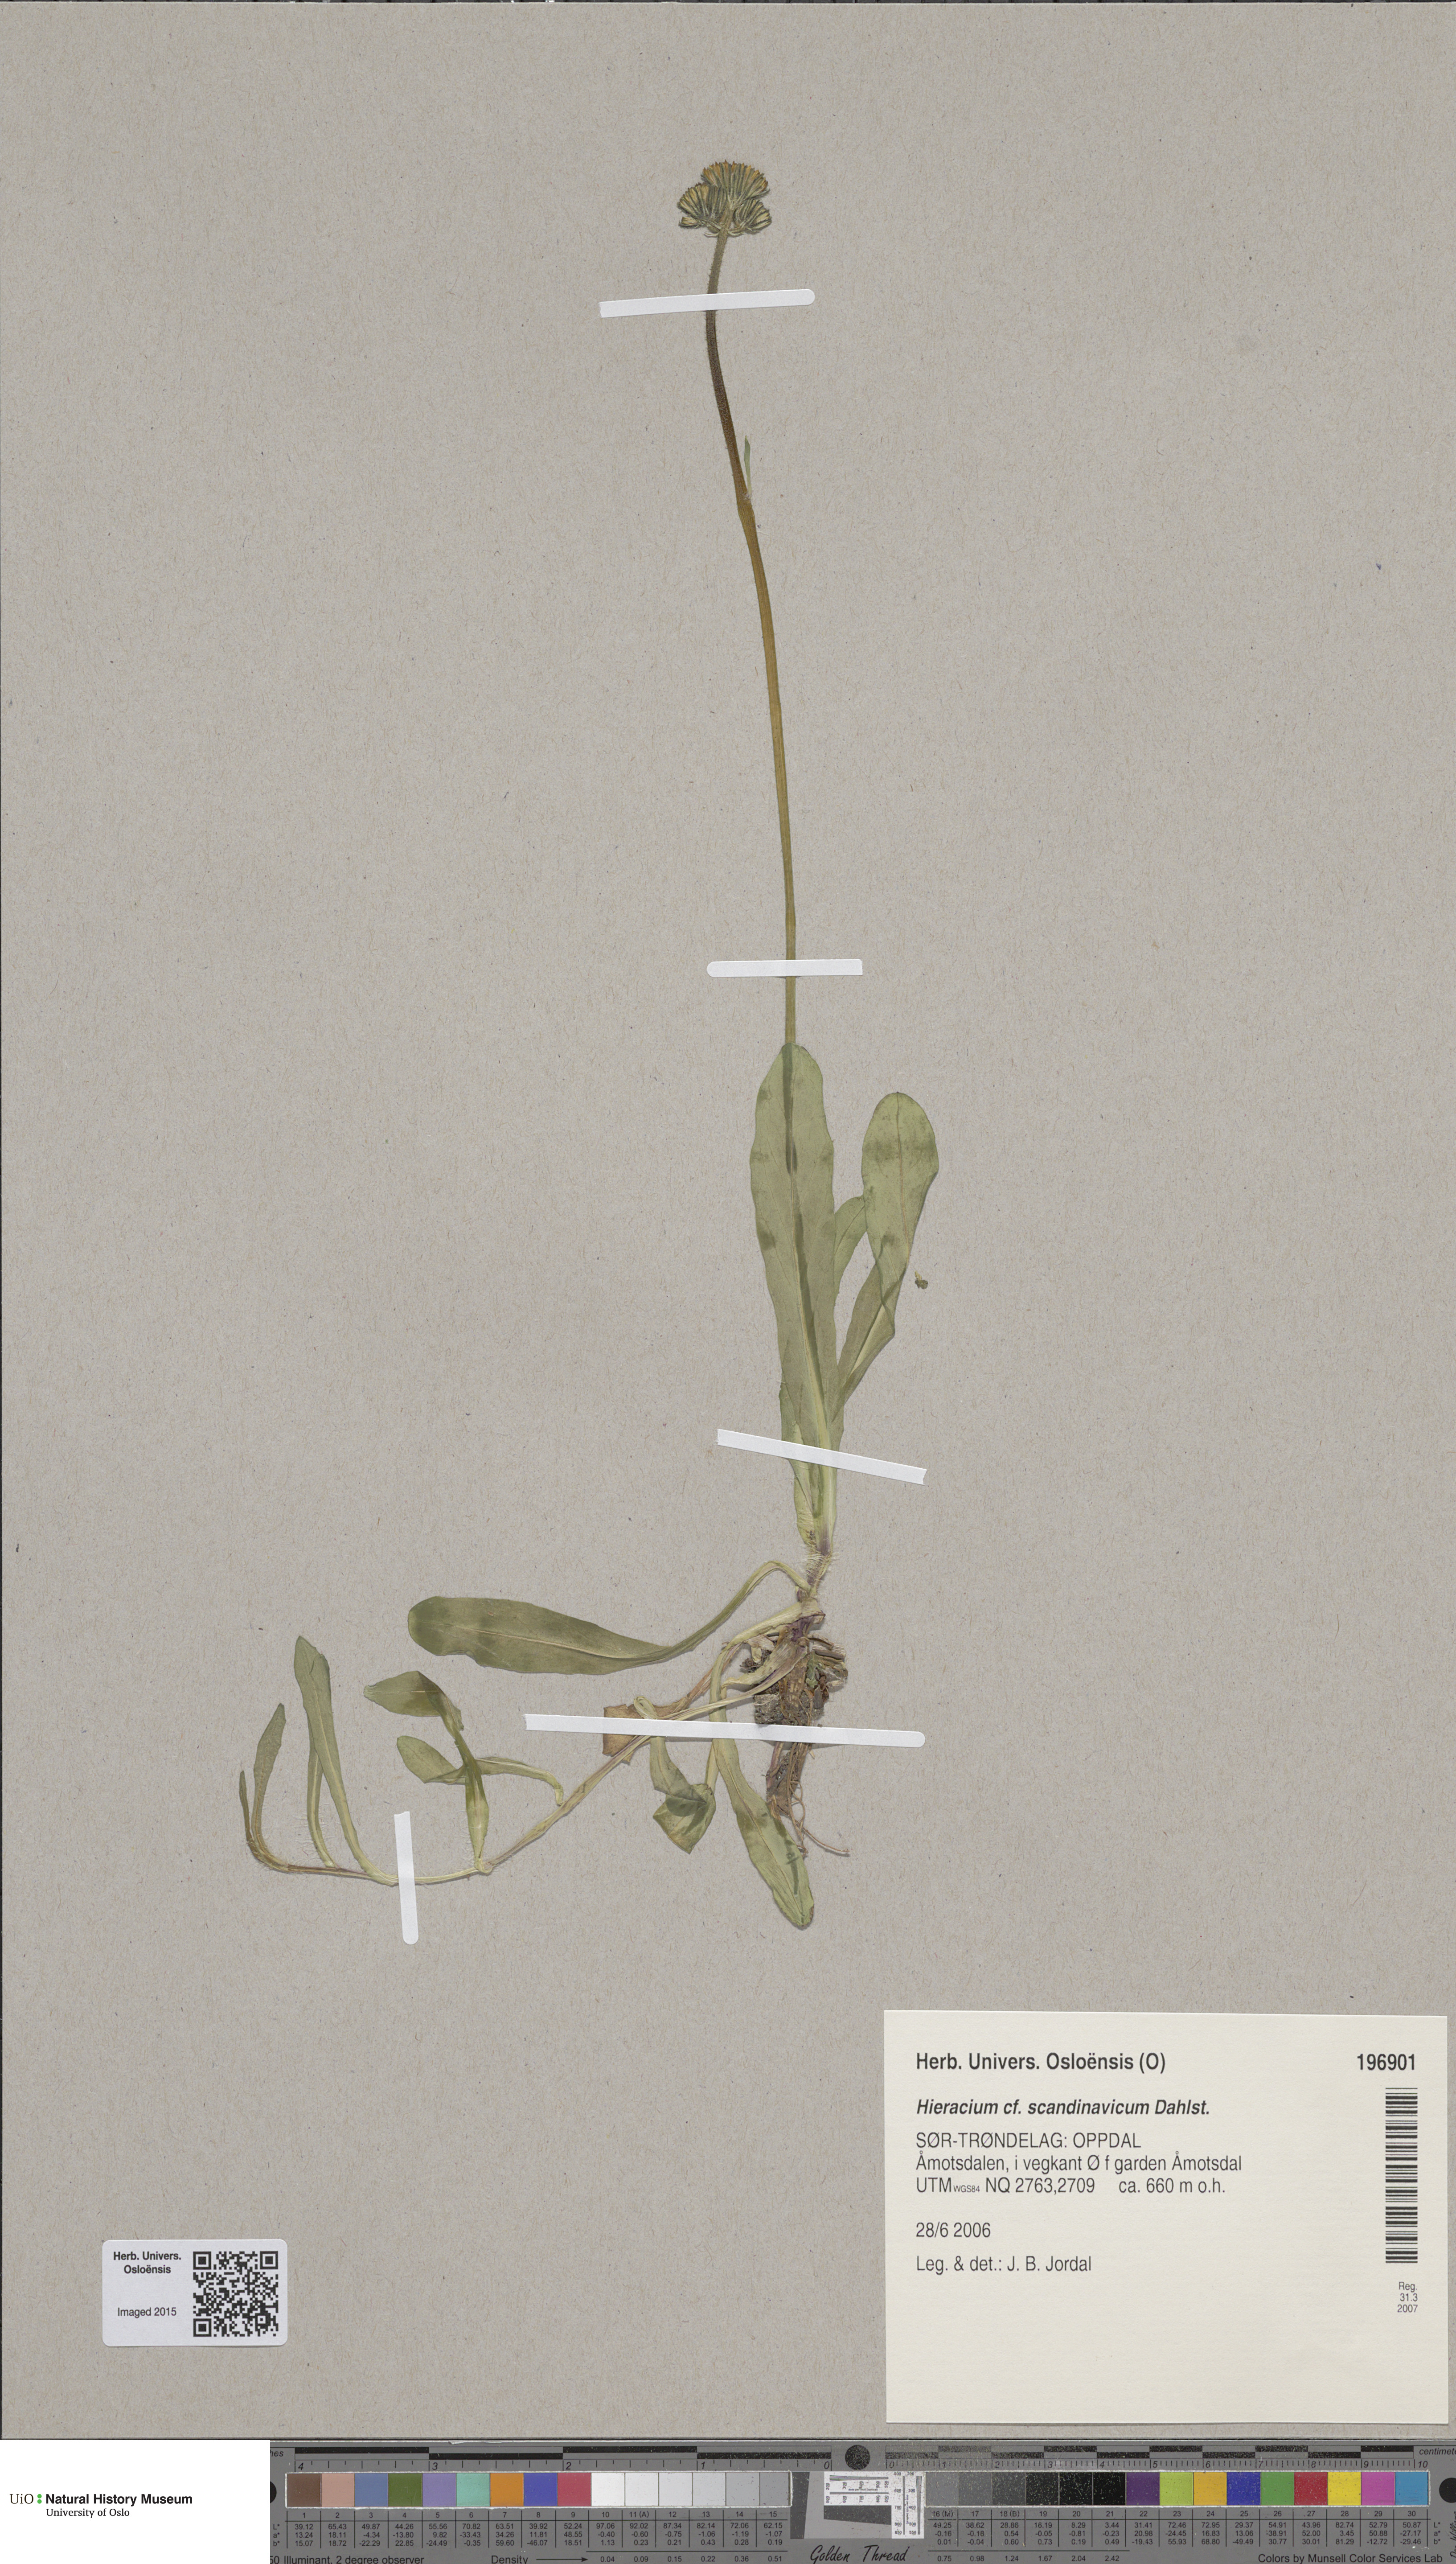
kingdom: Plantae
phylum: Tracheophyta
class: Magnoliopsida
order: Asterales
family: Asteraceae
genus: Pilosella
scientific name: Pilosella scandinavica
